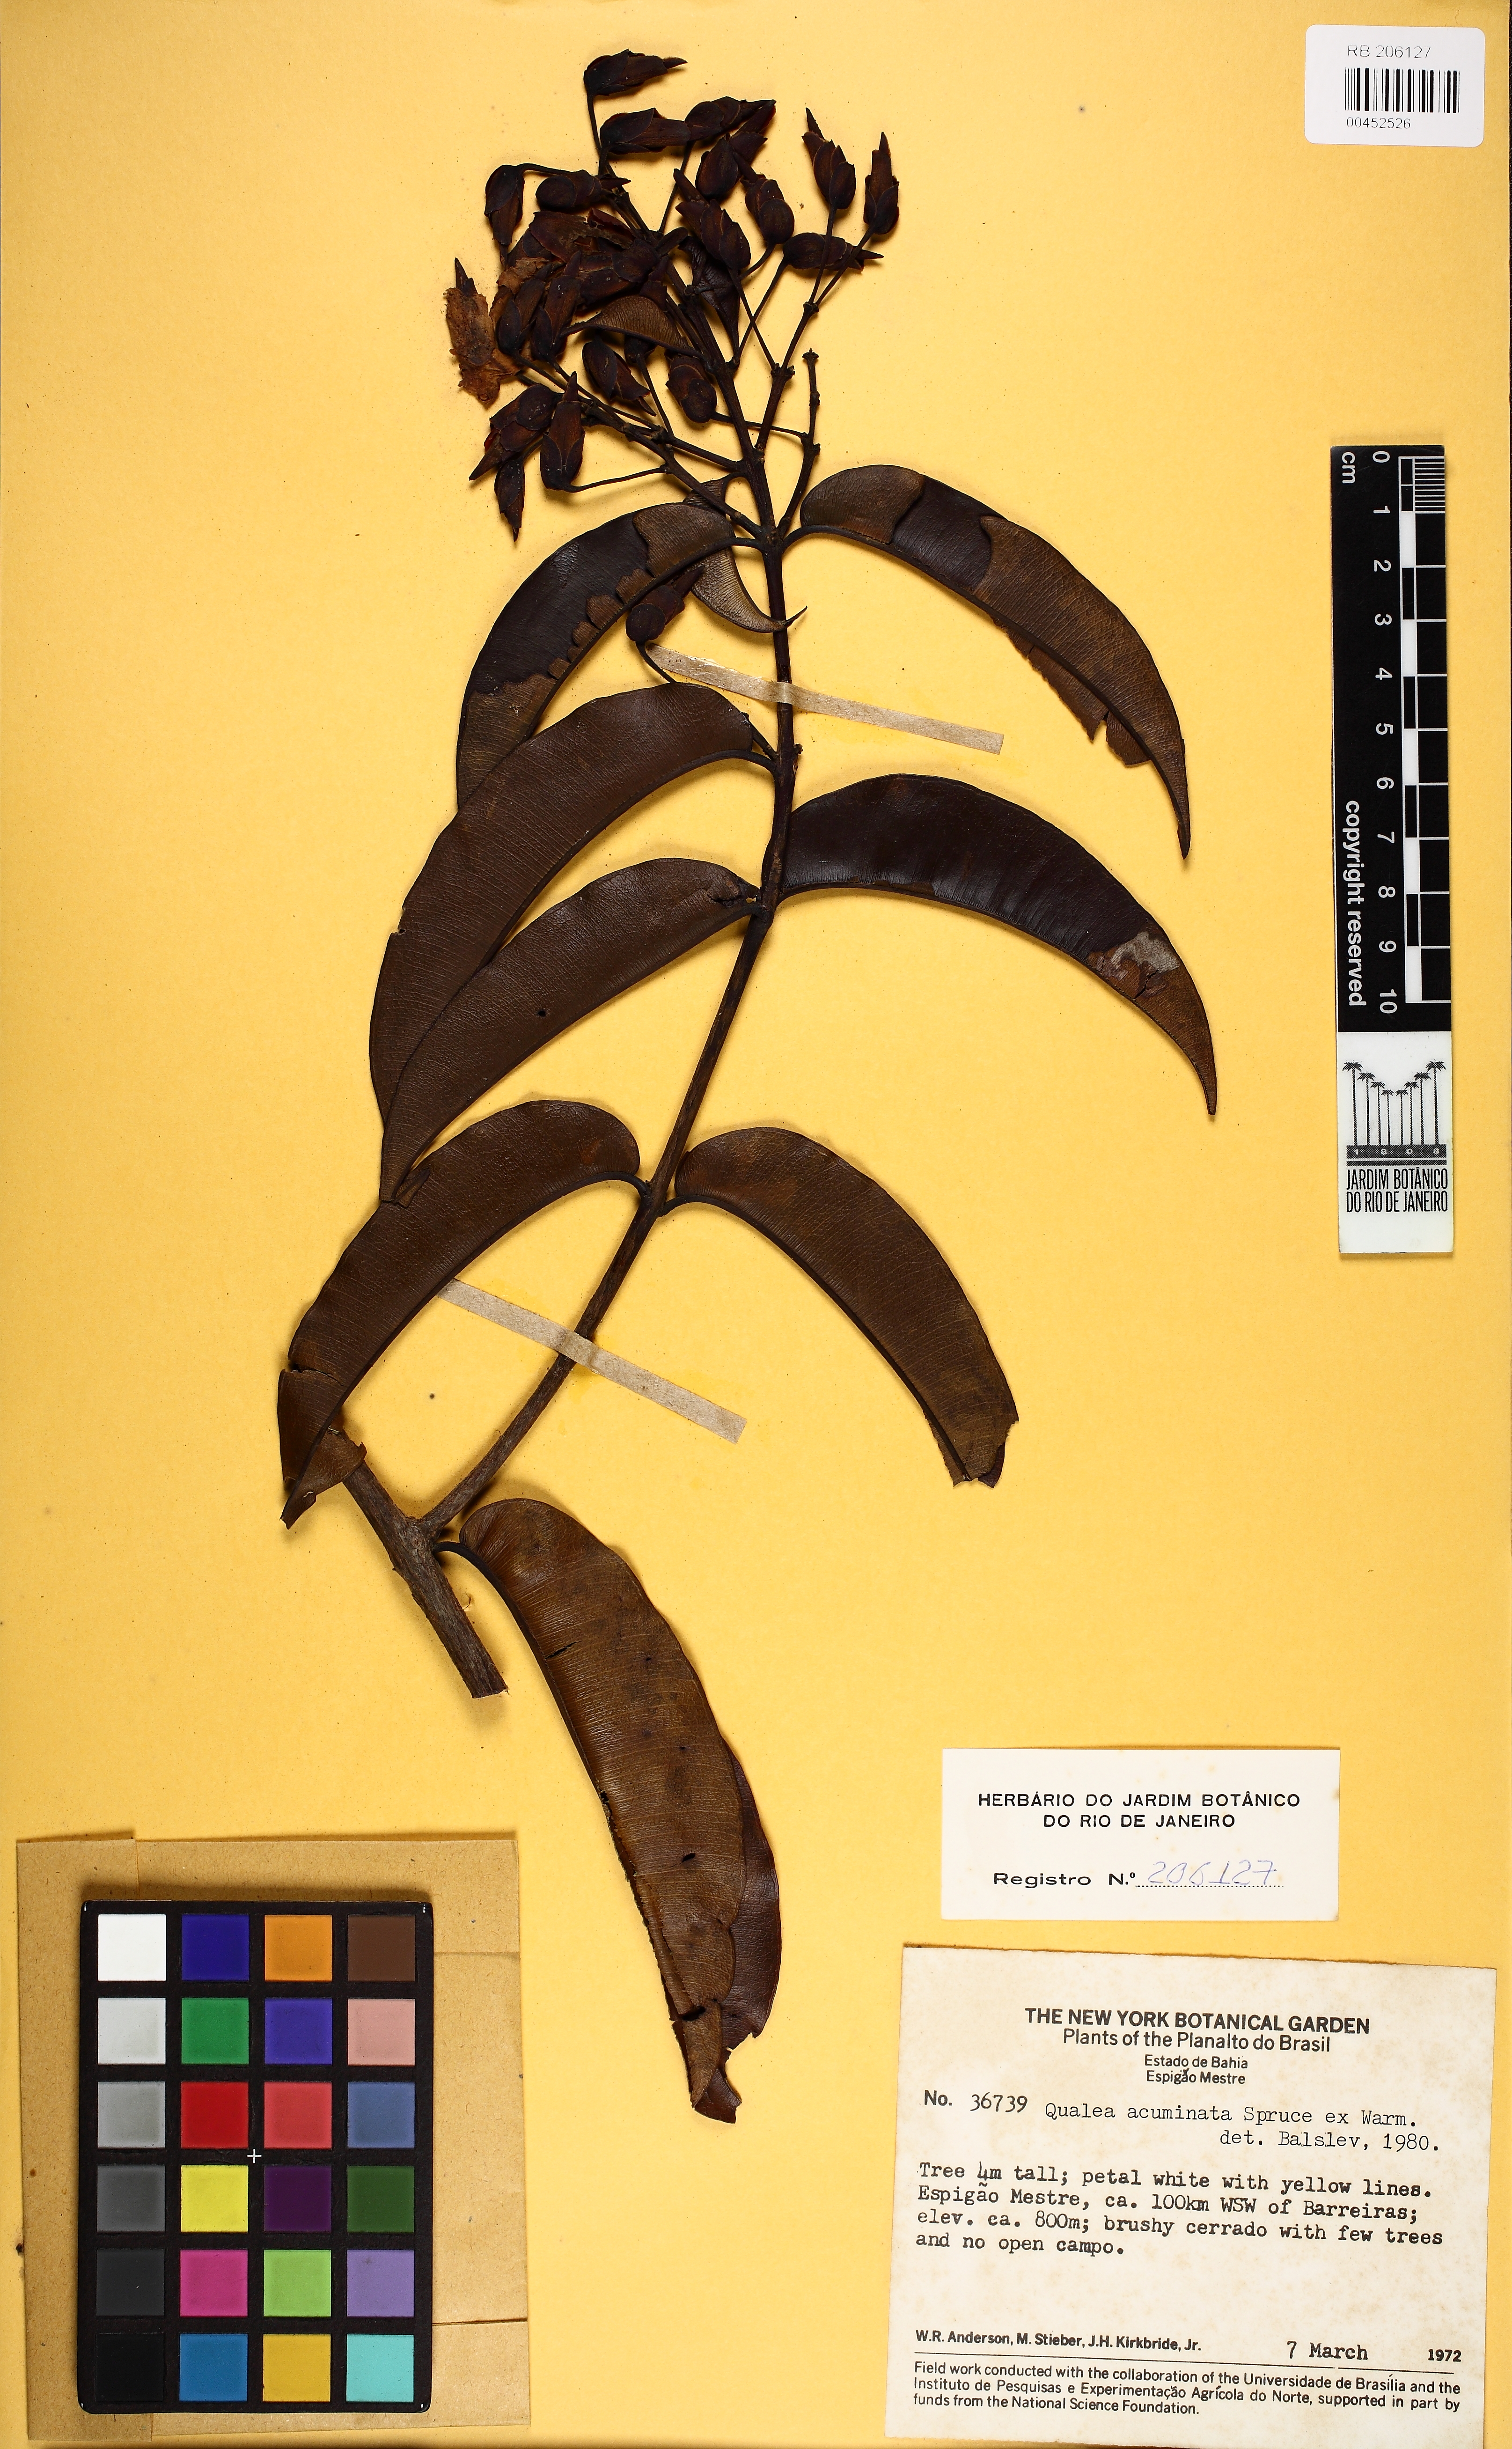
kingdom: Plantae
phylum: Tracheophyta
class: Magnoliopsida
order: Myrtales
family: Vochysiaceae
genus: Qualea
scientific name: Qualea acuminata
